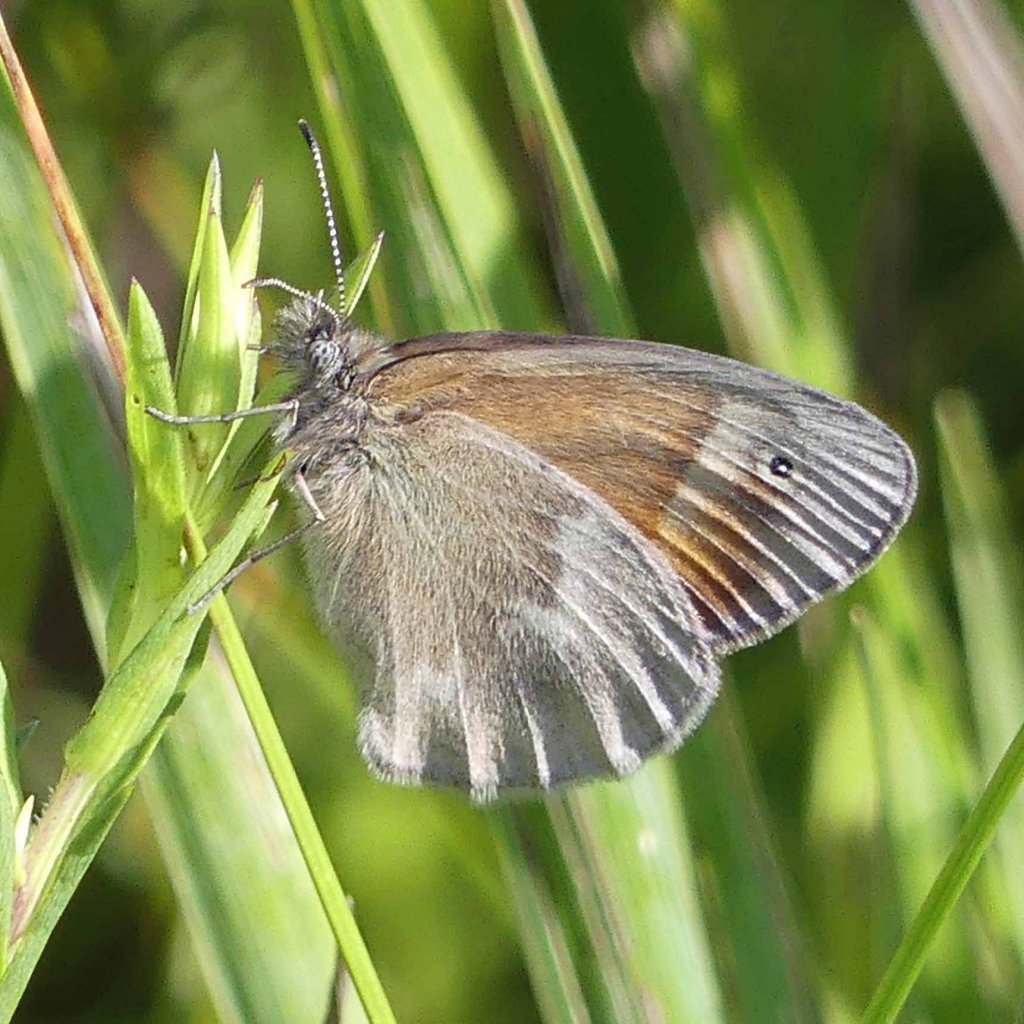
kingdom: Animalia
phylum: Arthropoda
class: Insecta
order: Lepidoptera
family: Nymphalidae
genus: Coenonympha
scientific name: Coenonympha tullia
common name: Large Heath
